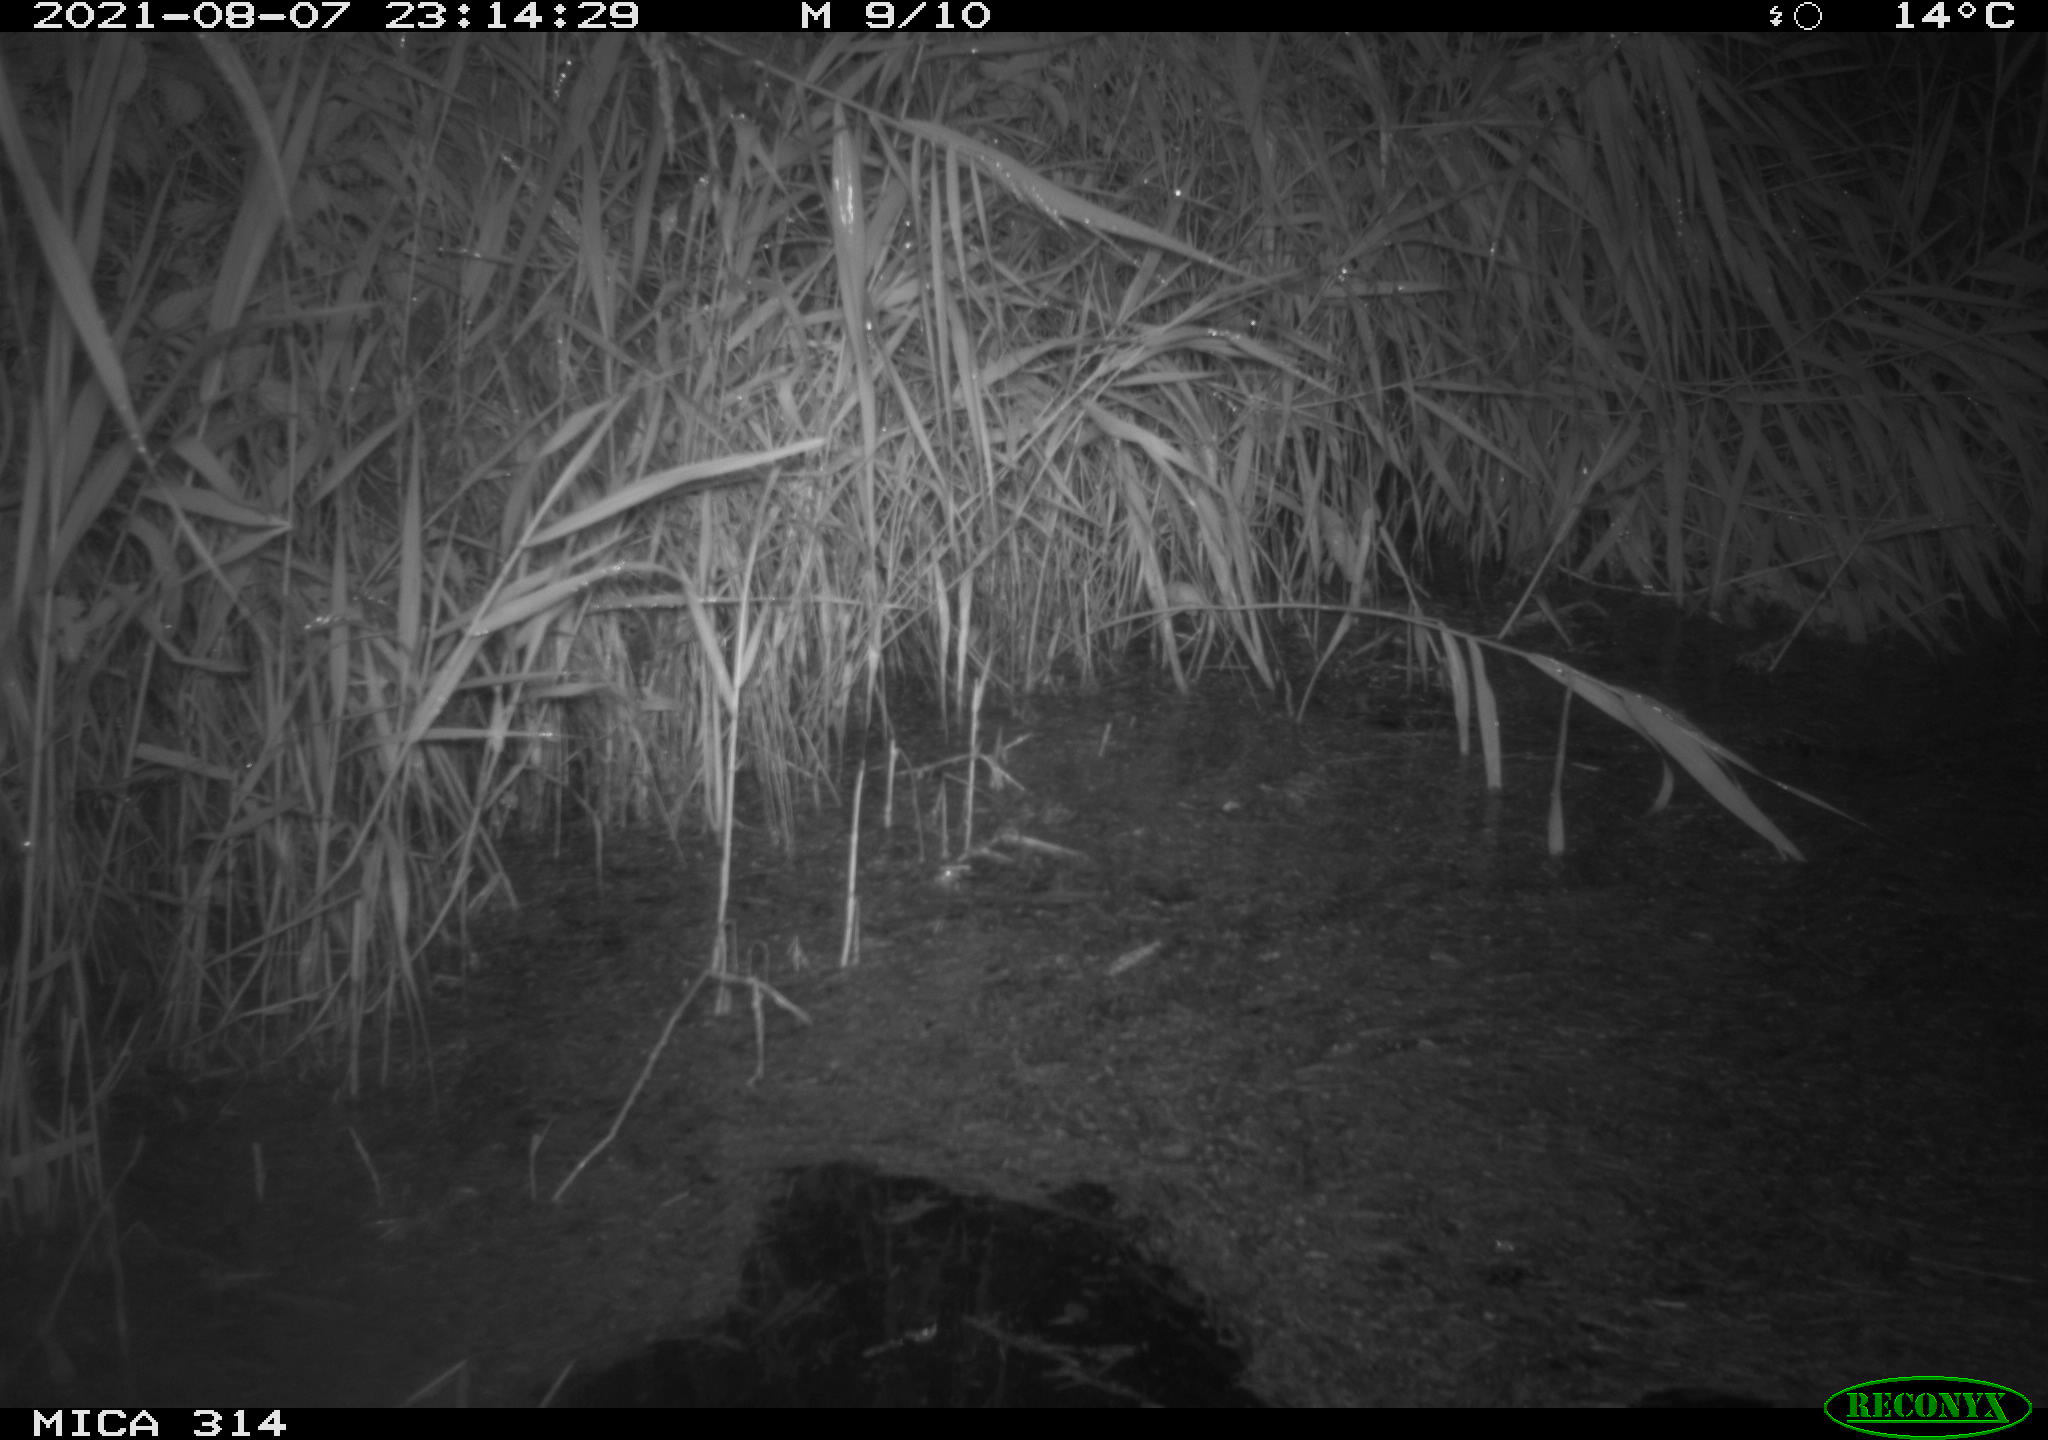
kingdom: Animalia
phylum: Chordata
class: Mammalia
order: Rodentia
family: Muridae
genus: Rattus
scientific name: Rattus norvegicus
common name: Brown rat
